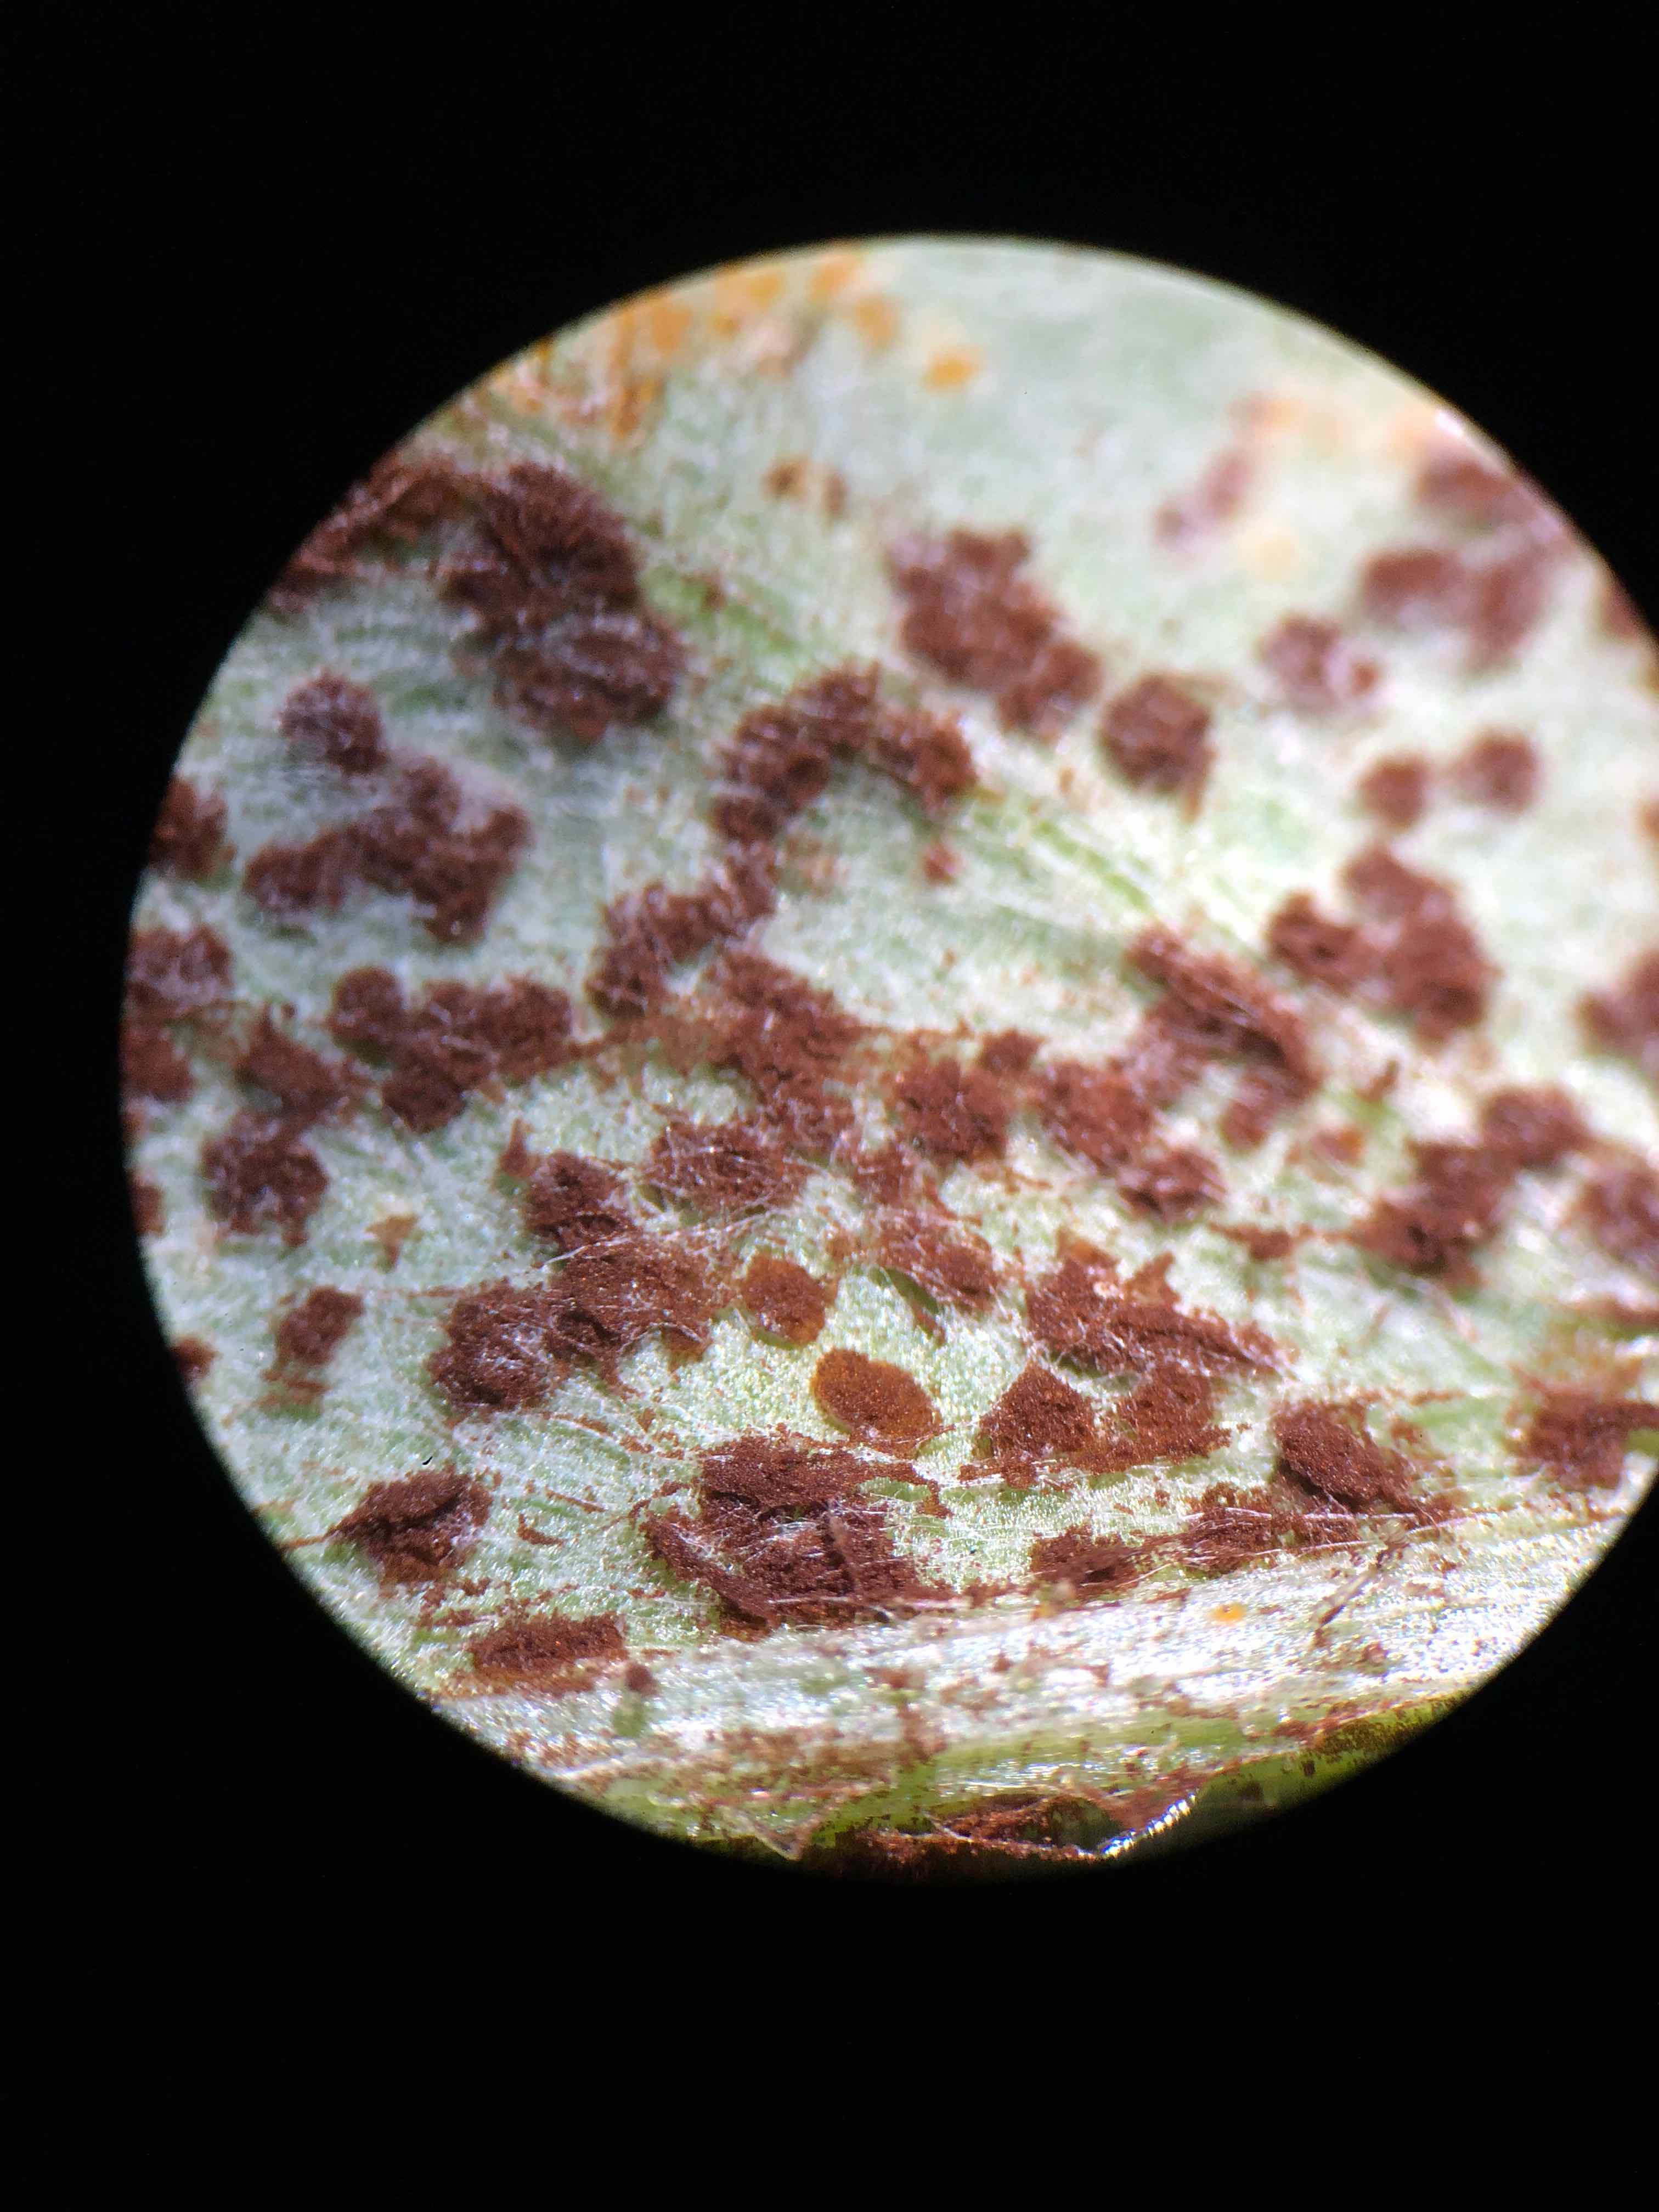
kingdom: Fungi
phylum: Basidiomycota
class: Pucciniomycetes
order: Pucciniales
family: Pucciniaceae
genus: Puccinia
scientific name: Puccinia suaveolens
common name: tidsel-tvecellerust
